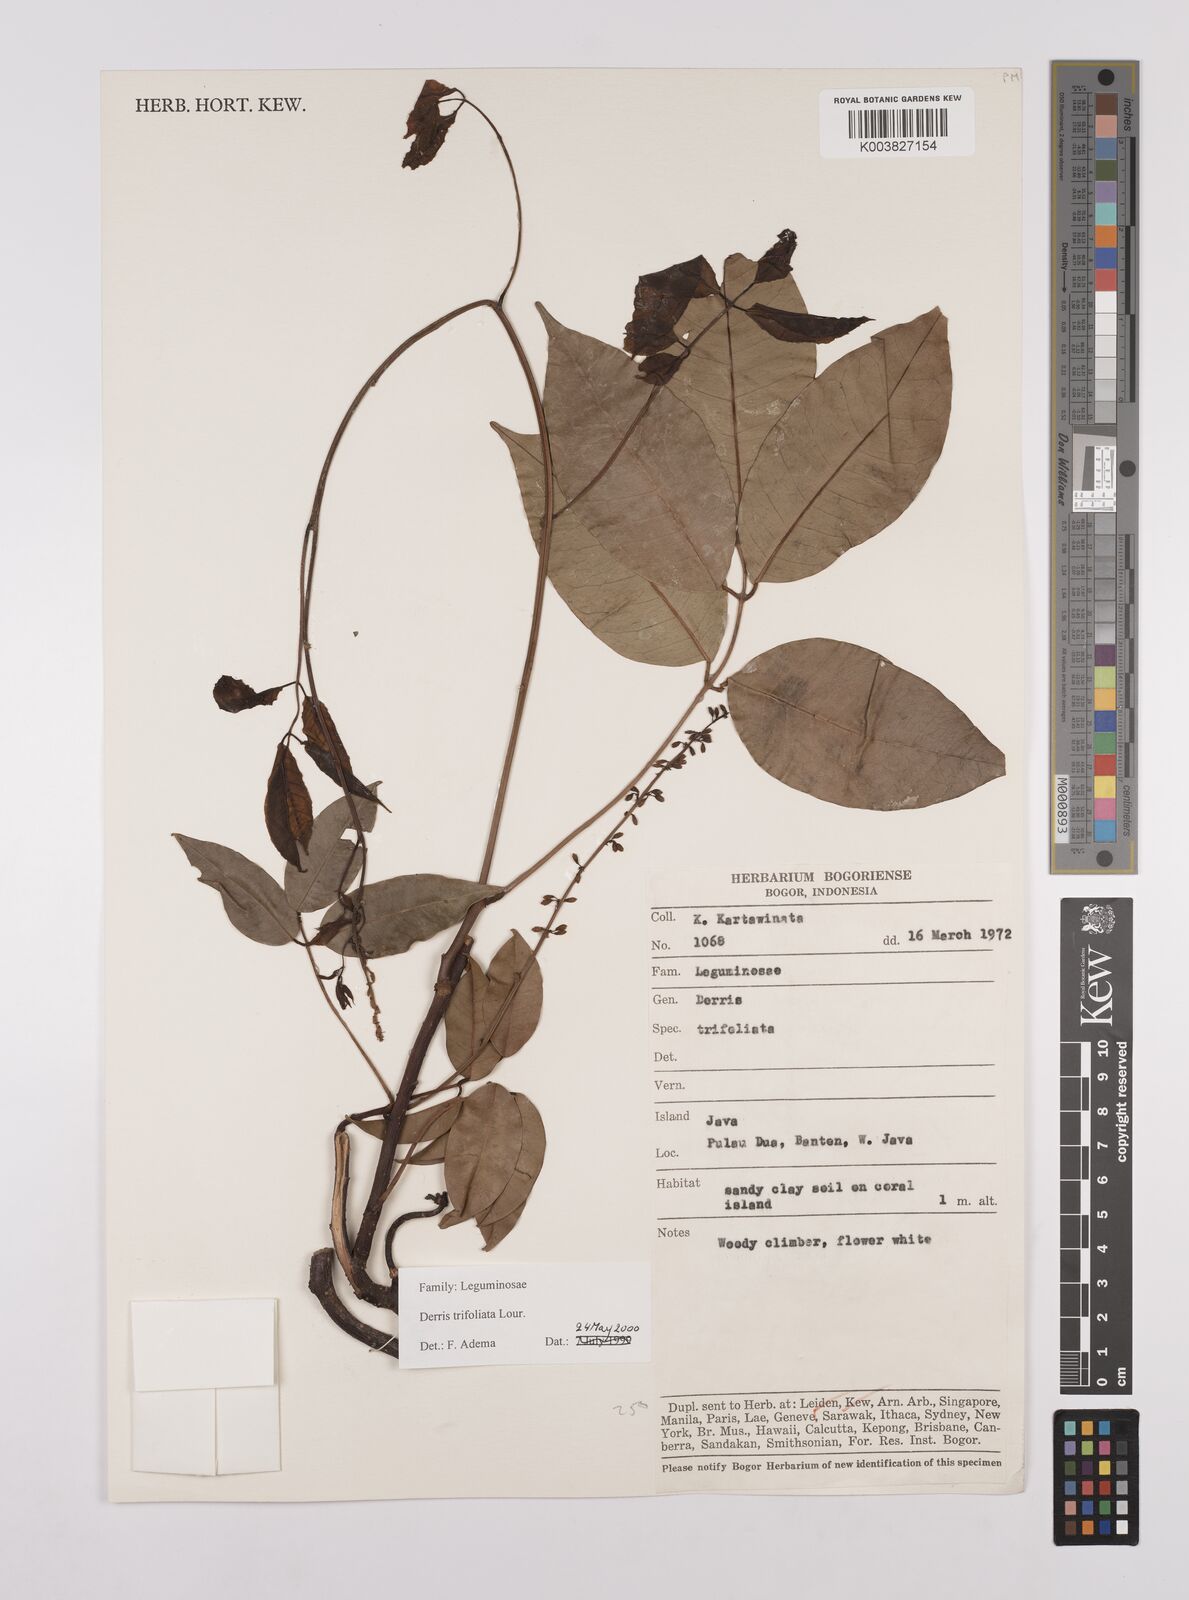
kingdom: Plantae
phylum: Tracheophyta
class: Magnoliopsida
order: Fabales
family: Fabaceae
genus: Derris
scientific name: Derris trifoliata
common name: Three-leaf derris
